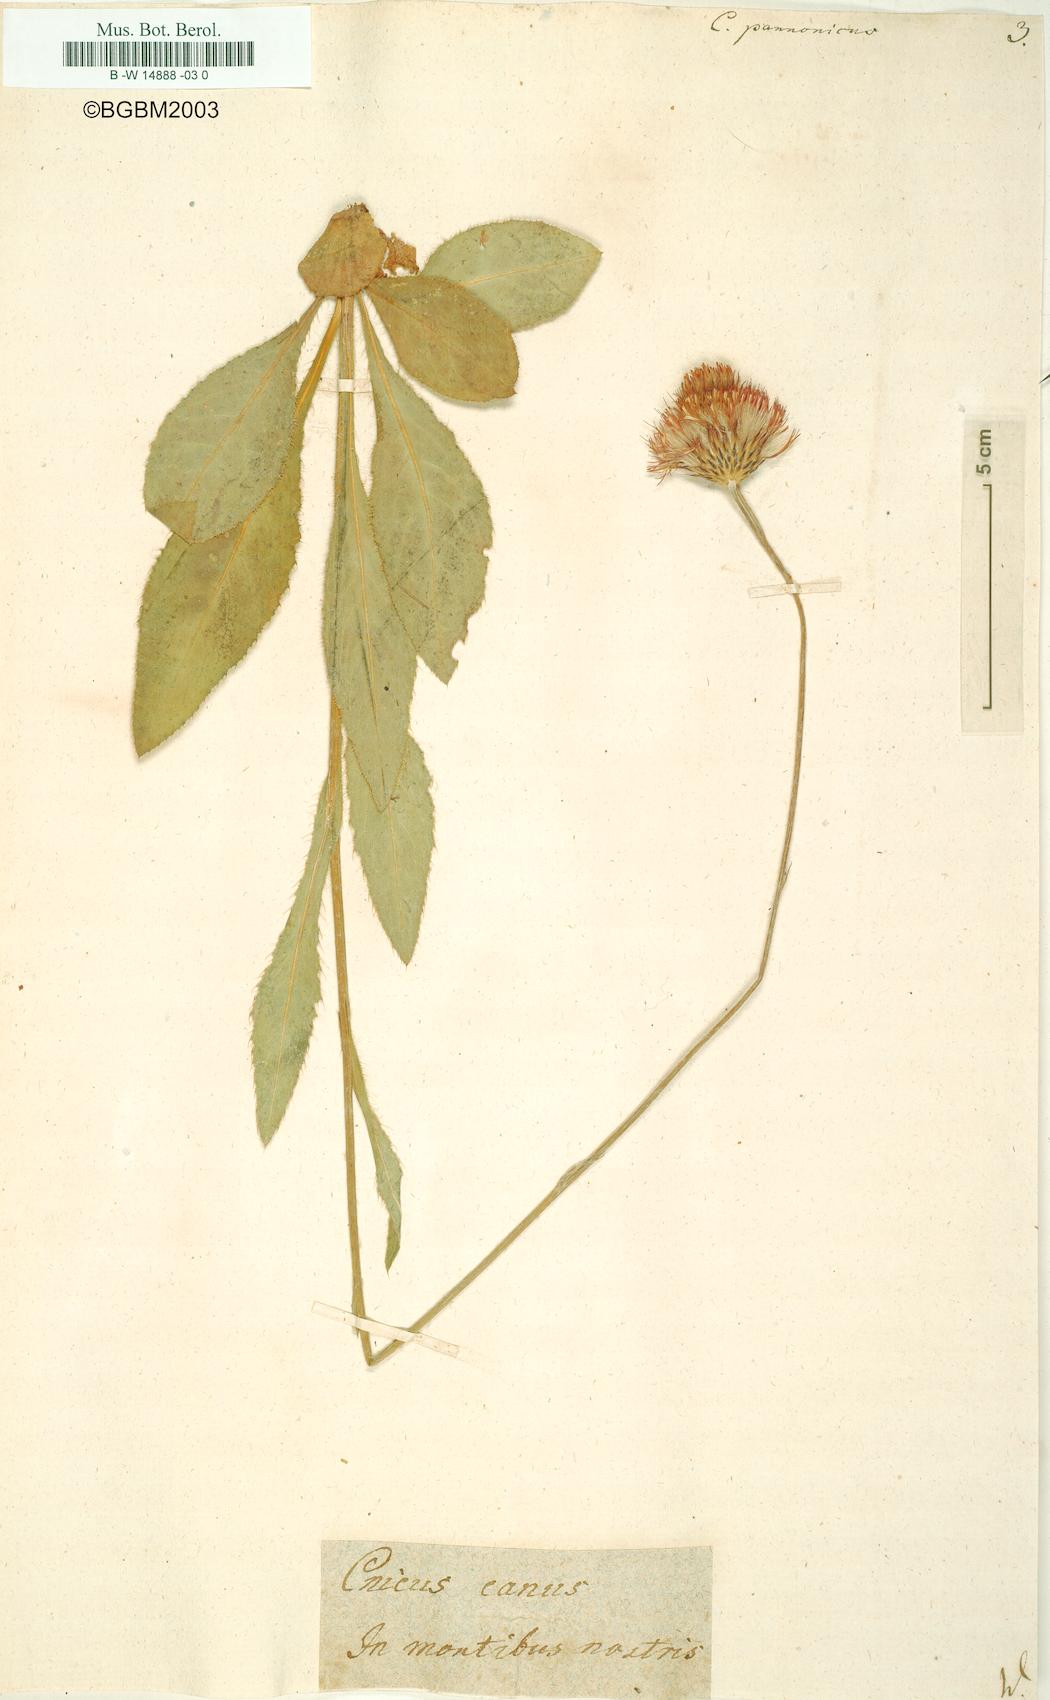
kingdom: Plantae
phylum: Tracheophyta
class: Magnoliopsida
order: Asterales
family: Asteraceae
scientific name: Asteraceae
